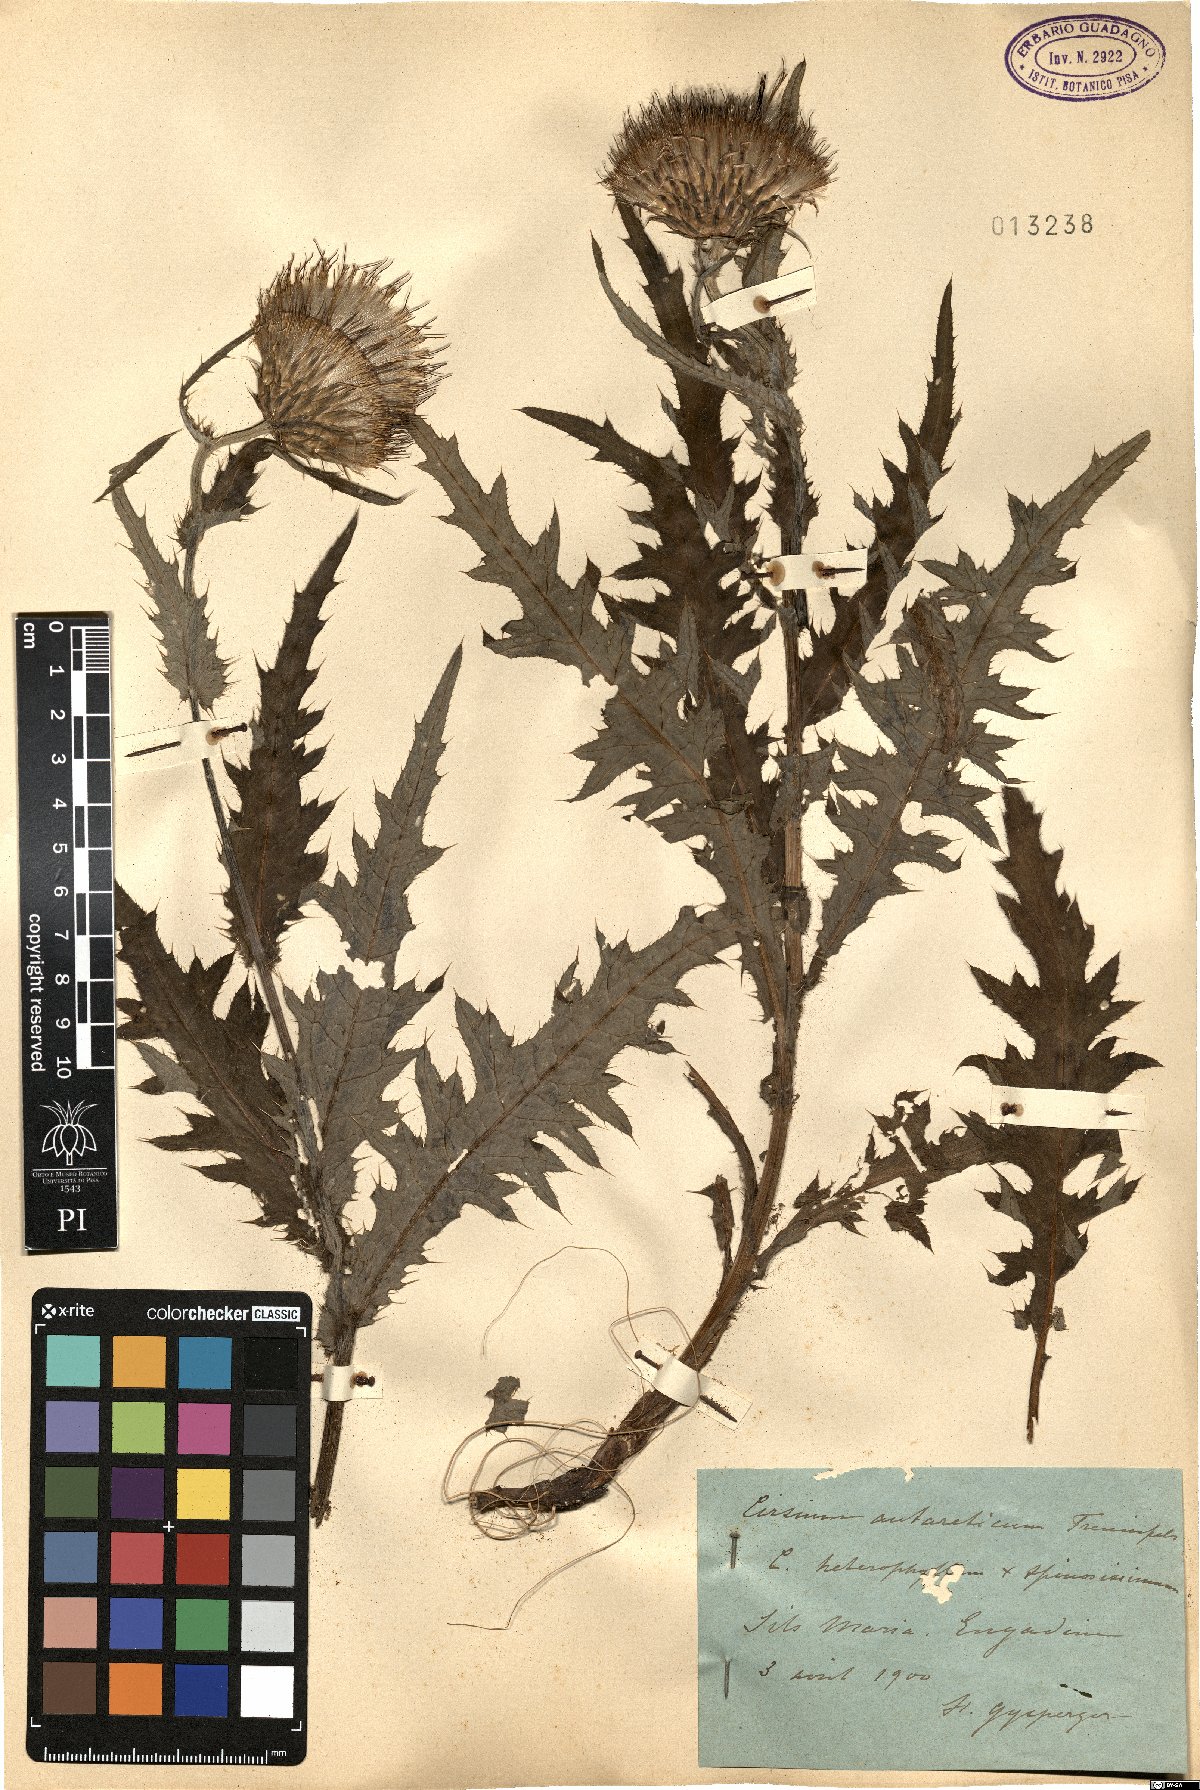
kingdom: Plantae
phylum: Tracheophyta
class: Magnoliopsida
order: Asterales
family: Asteraceae
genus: Cirsium
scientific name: Cirsium purpureum
